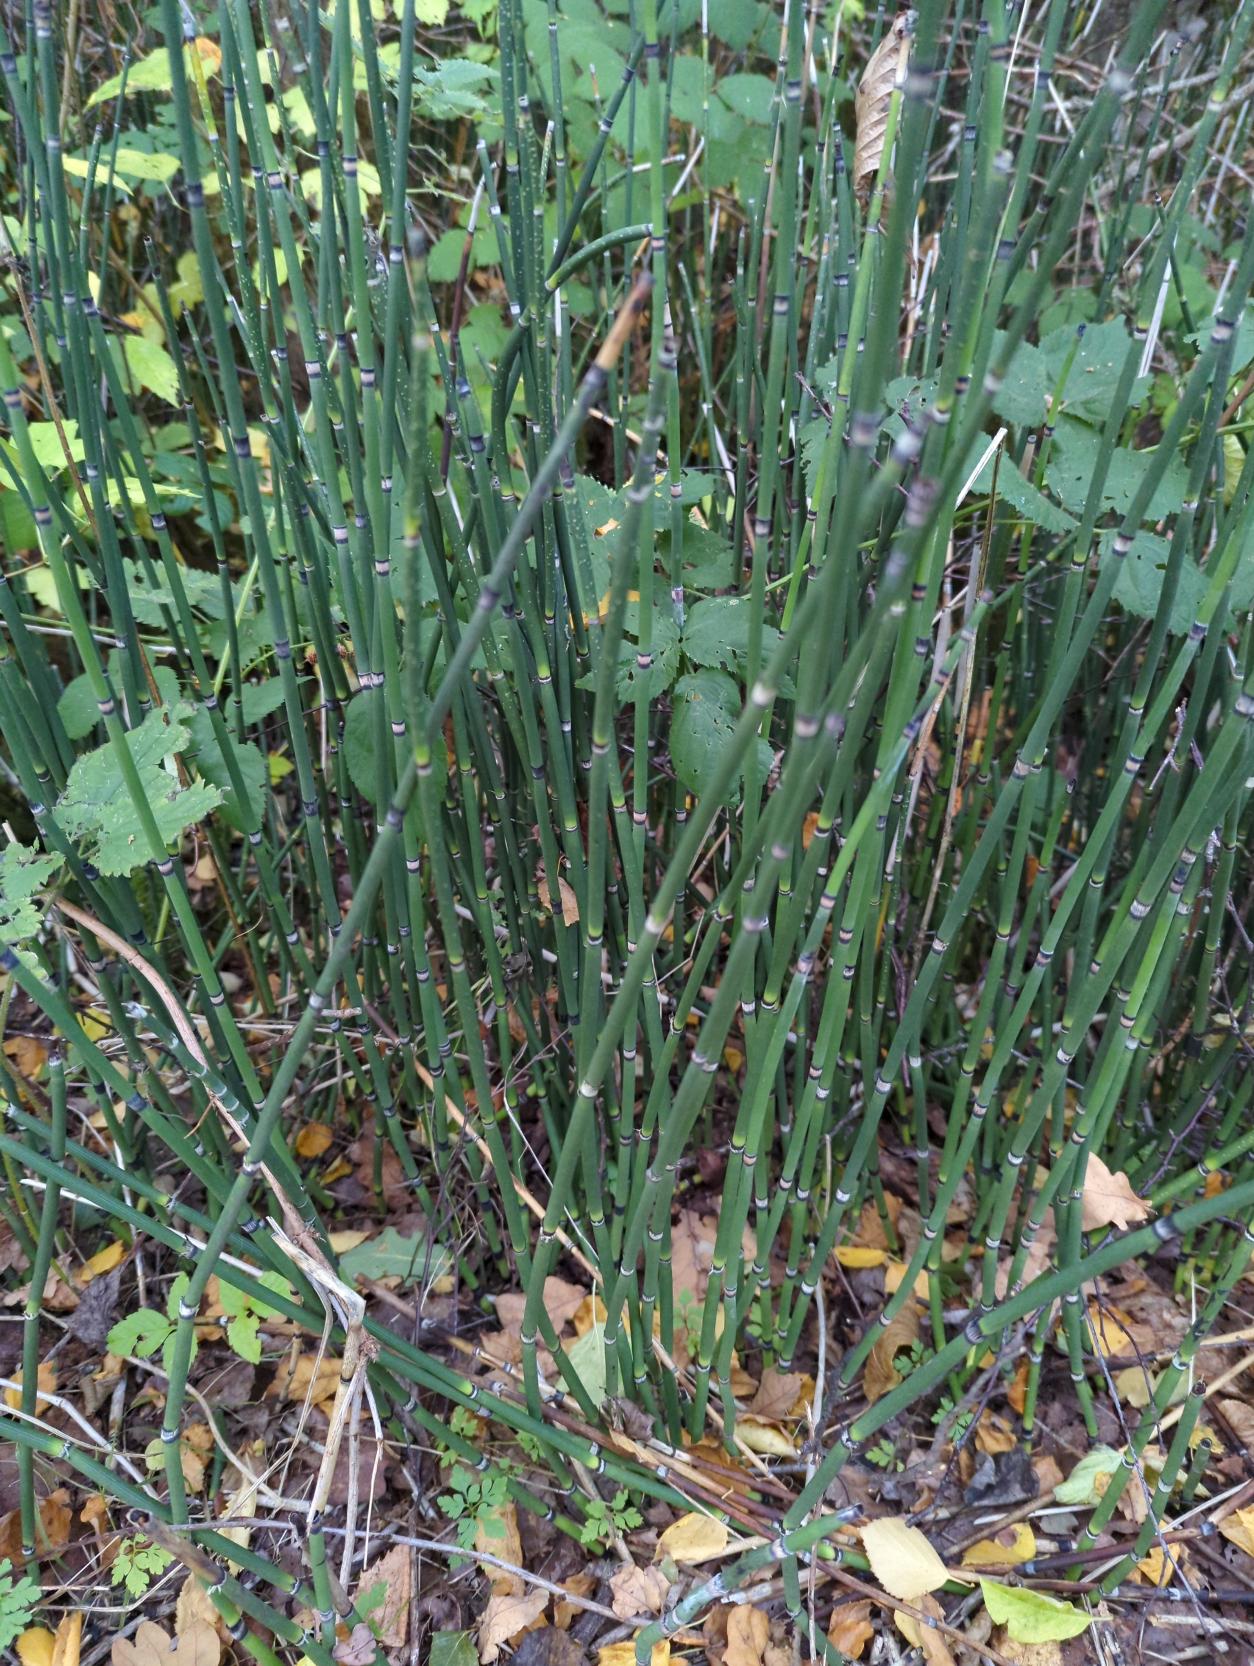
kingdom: Plantae
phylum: Tracheophyta
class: Polypodiopsida
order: Equisetales
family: Equisetaceae
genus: Equisetum
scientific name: Equisetum hyemale
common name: Skavgræs
